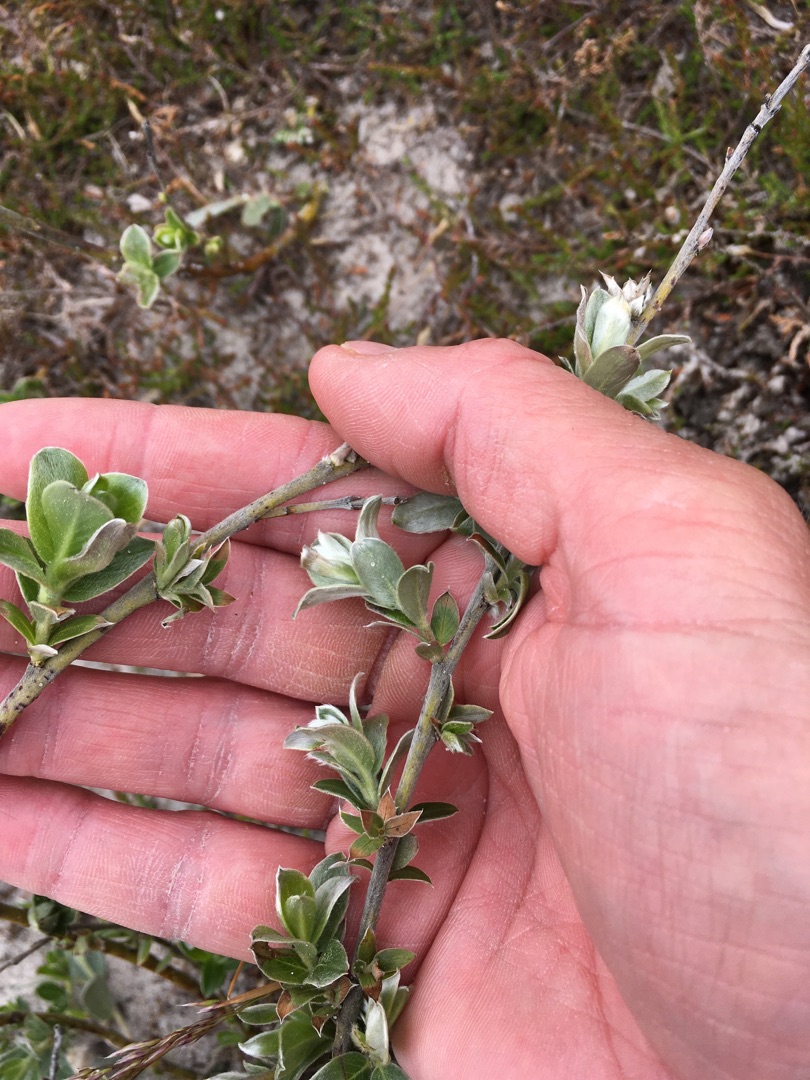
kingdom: Plantae
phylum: Tracheophyta
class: Magnoliopsida
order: Malpighiales
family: Salicaceae
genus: Salix
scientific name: Salix repens
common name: Gråris
